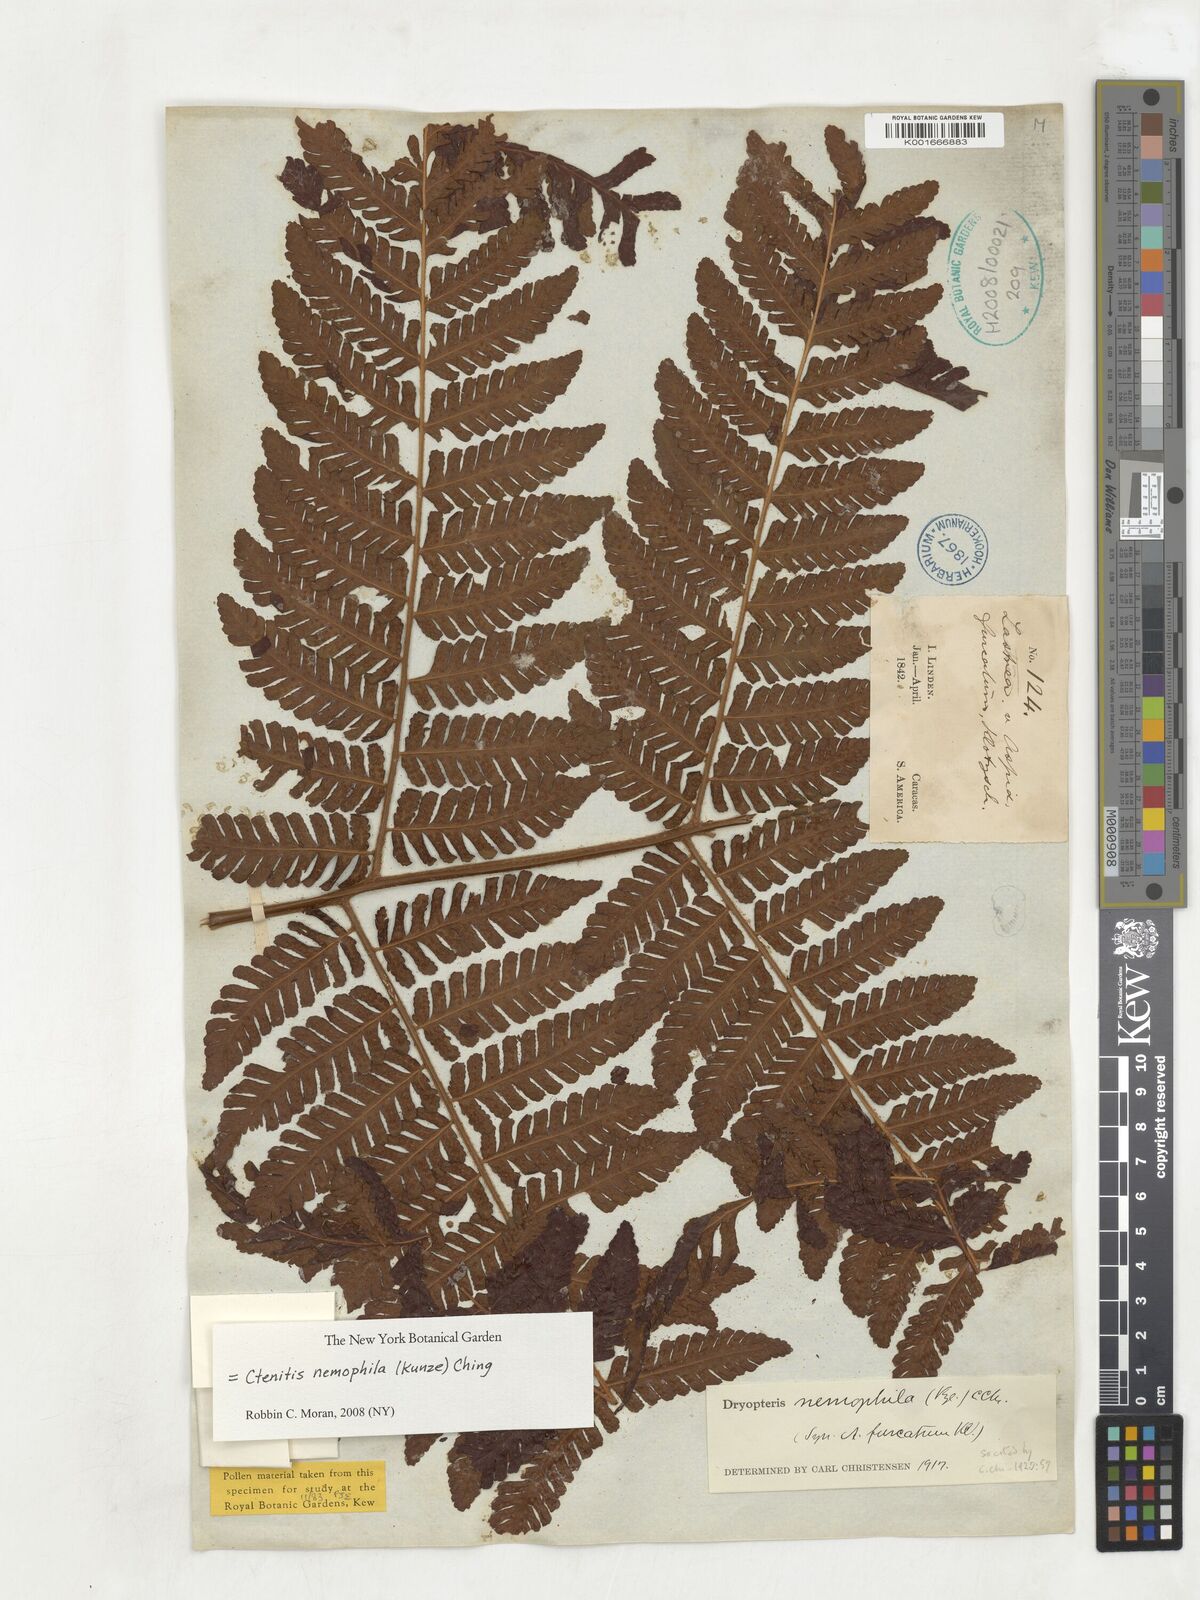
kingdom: Plantae
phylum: Tracheophyta
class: Polypodiopsida
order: Polypodiales
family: Dryopteridaceae
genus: Ctenitis
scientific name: Ctenitis sloanei
